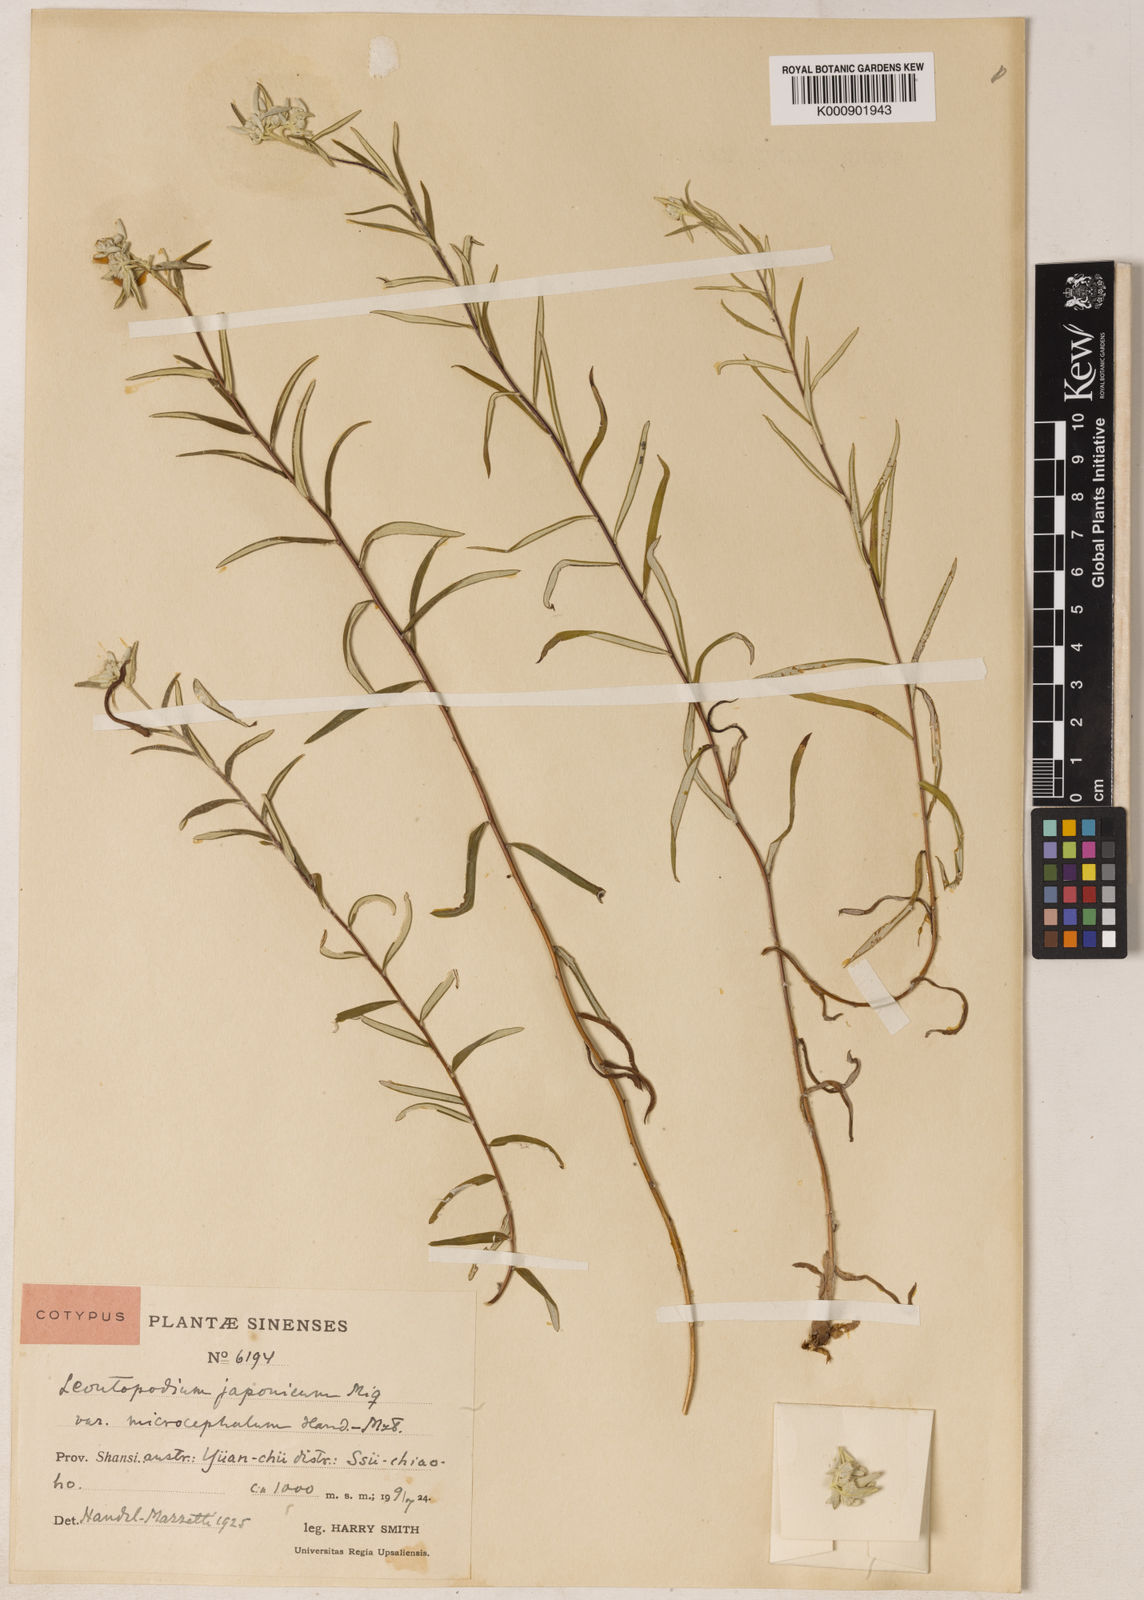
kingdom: Plantae
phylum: Tracheophyta
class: Magnoliopsida
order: Asterales
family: Asteraceae
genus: Leontopodium
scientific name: Leontopodium japonicum
